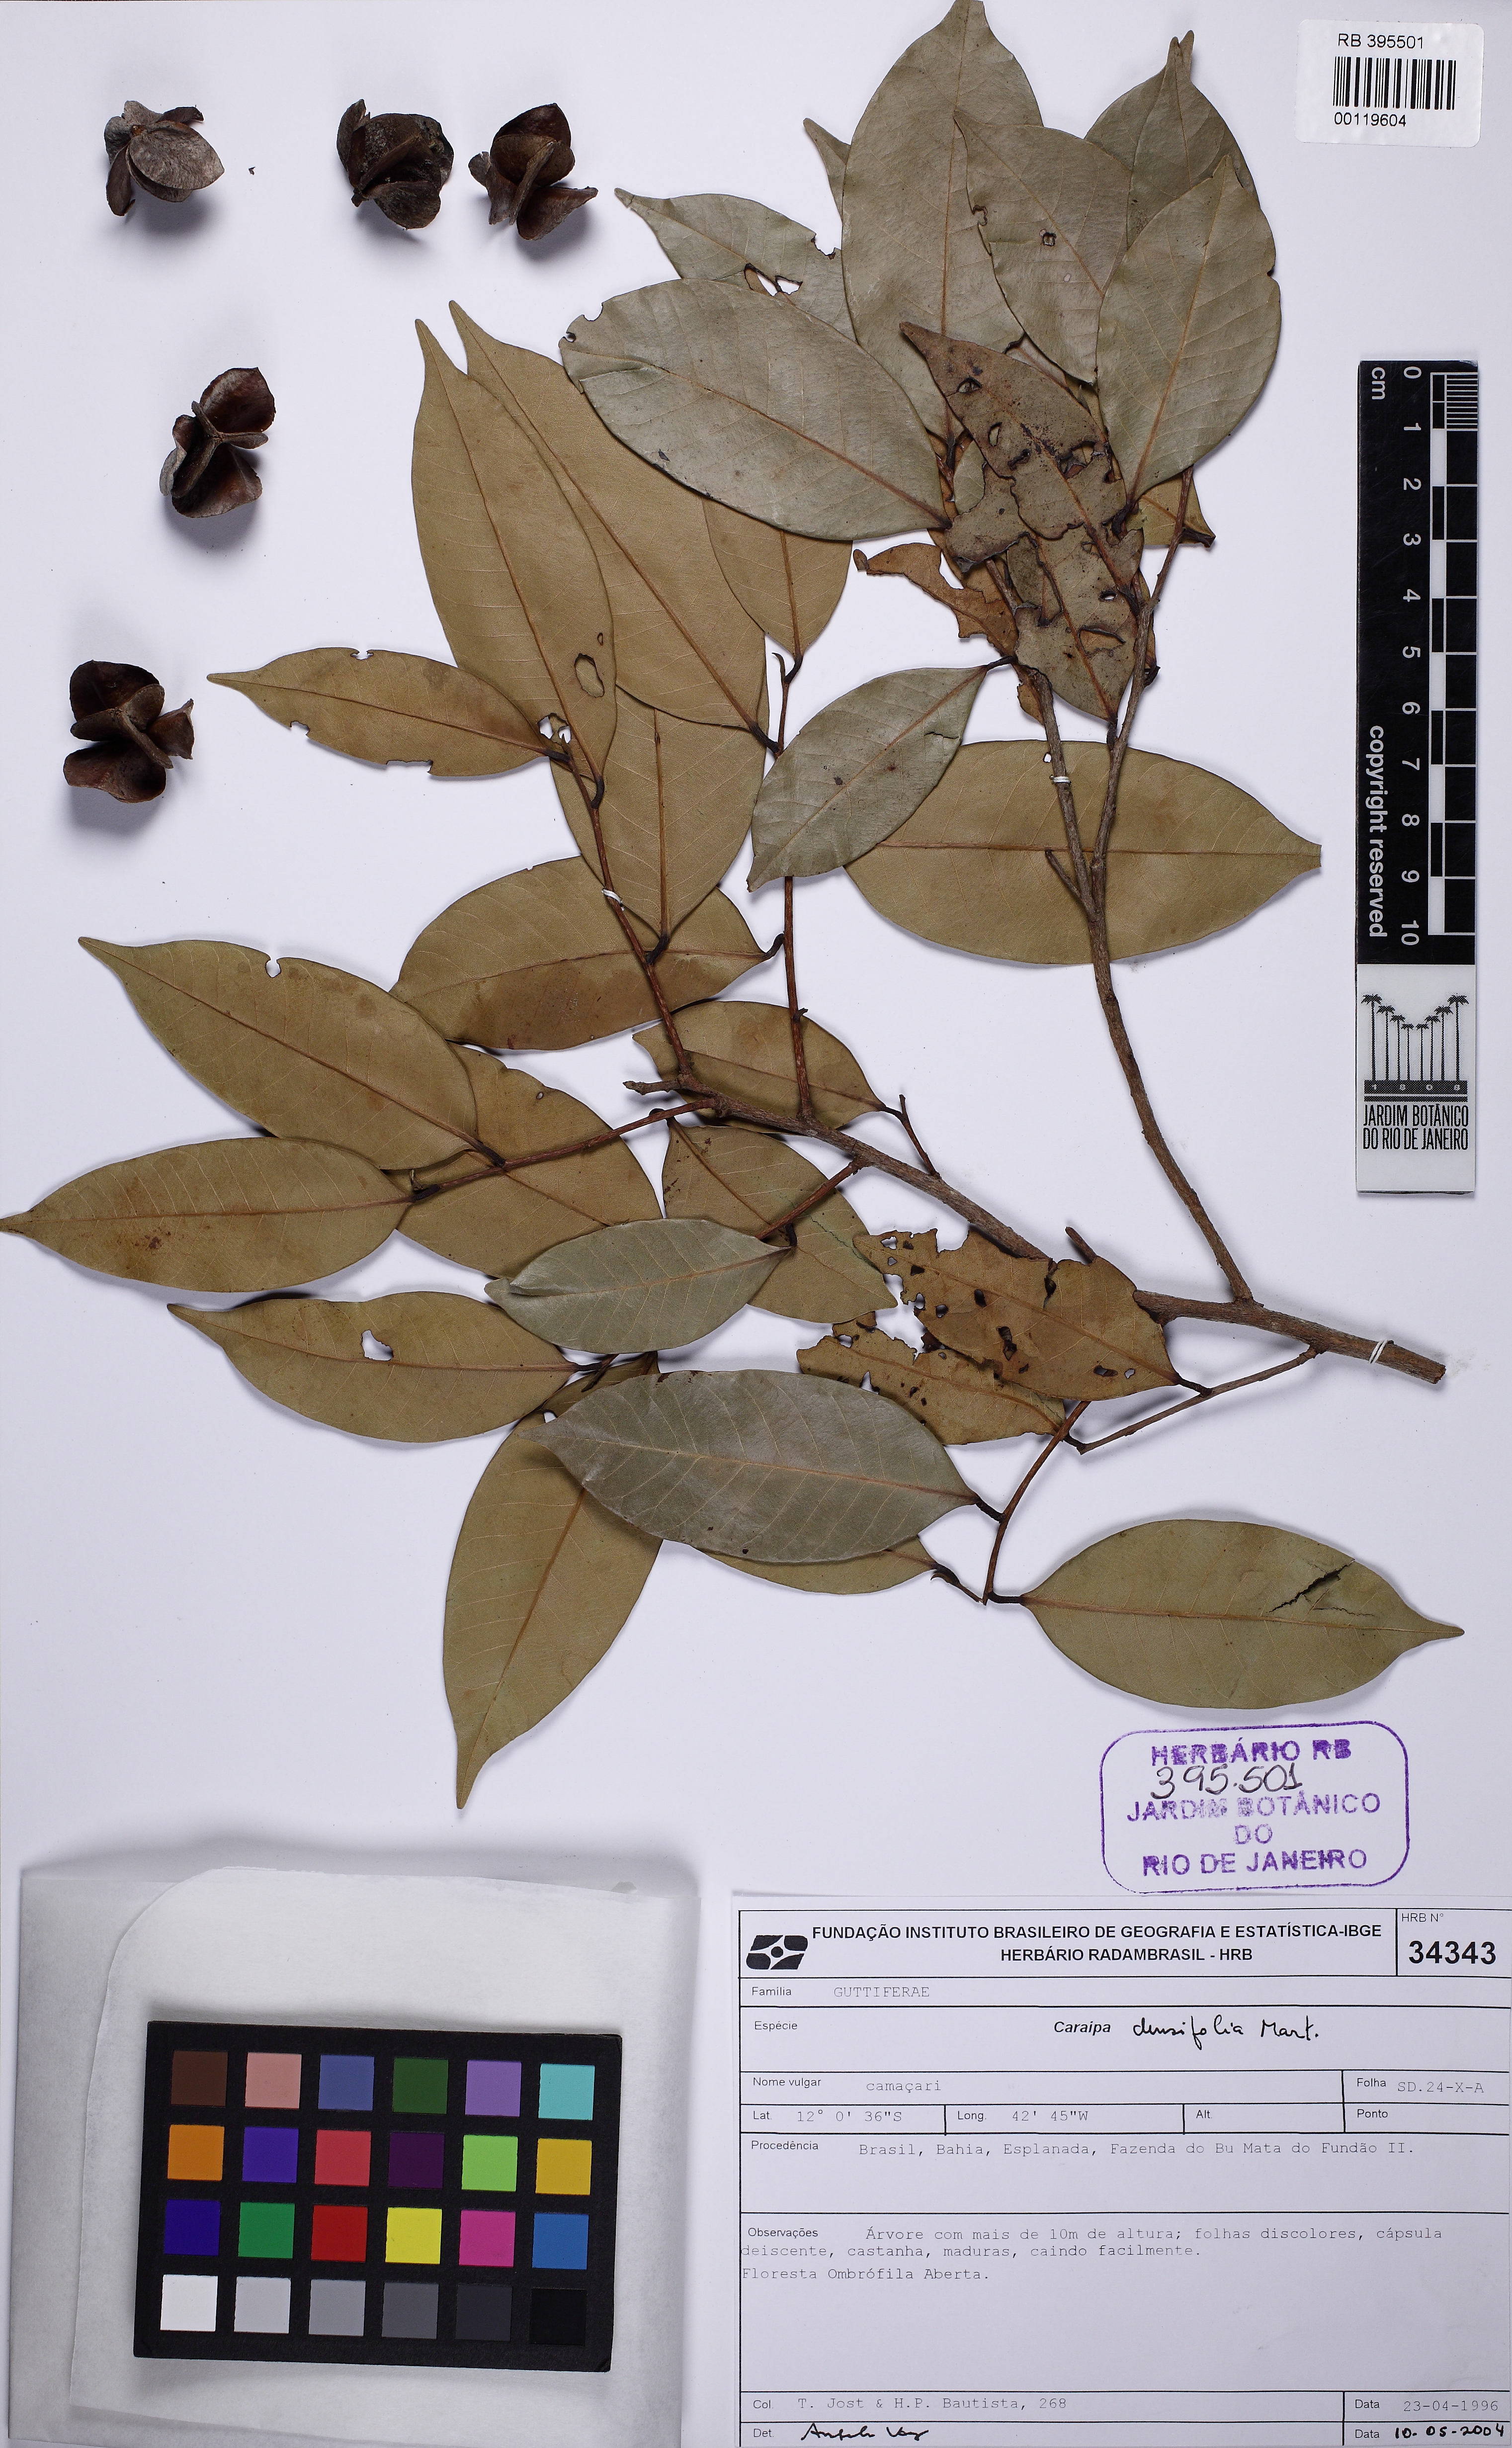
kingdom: Plantae
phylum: Tracheophyta
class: Magnoliopsida
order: Malpighiales
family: Calophyllaceae
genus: Caraipa
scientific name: Caraipa densifolia
